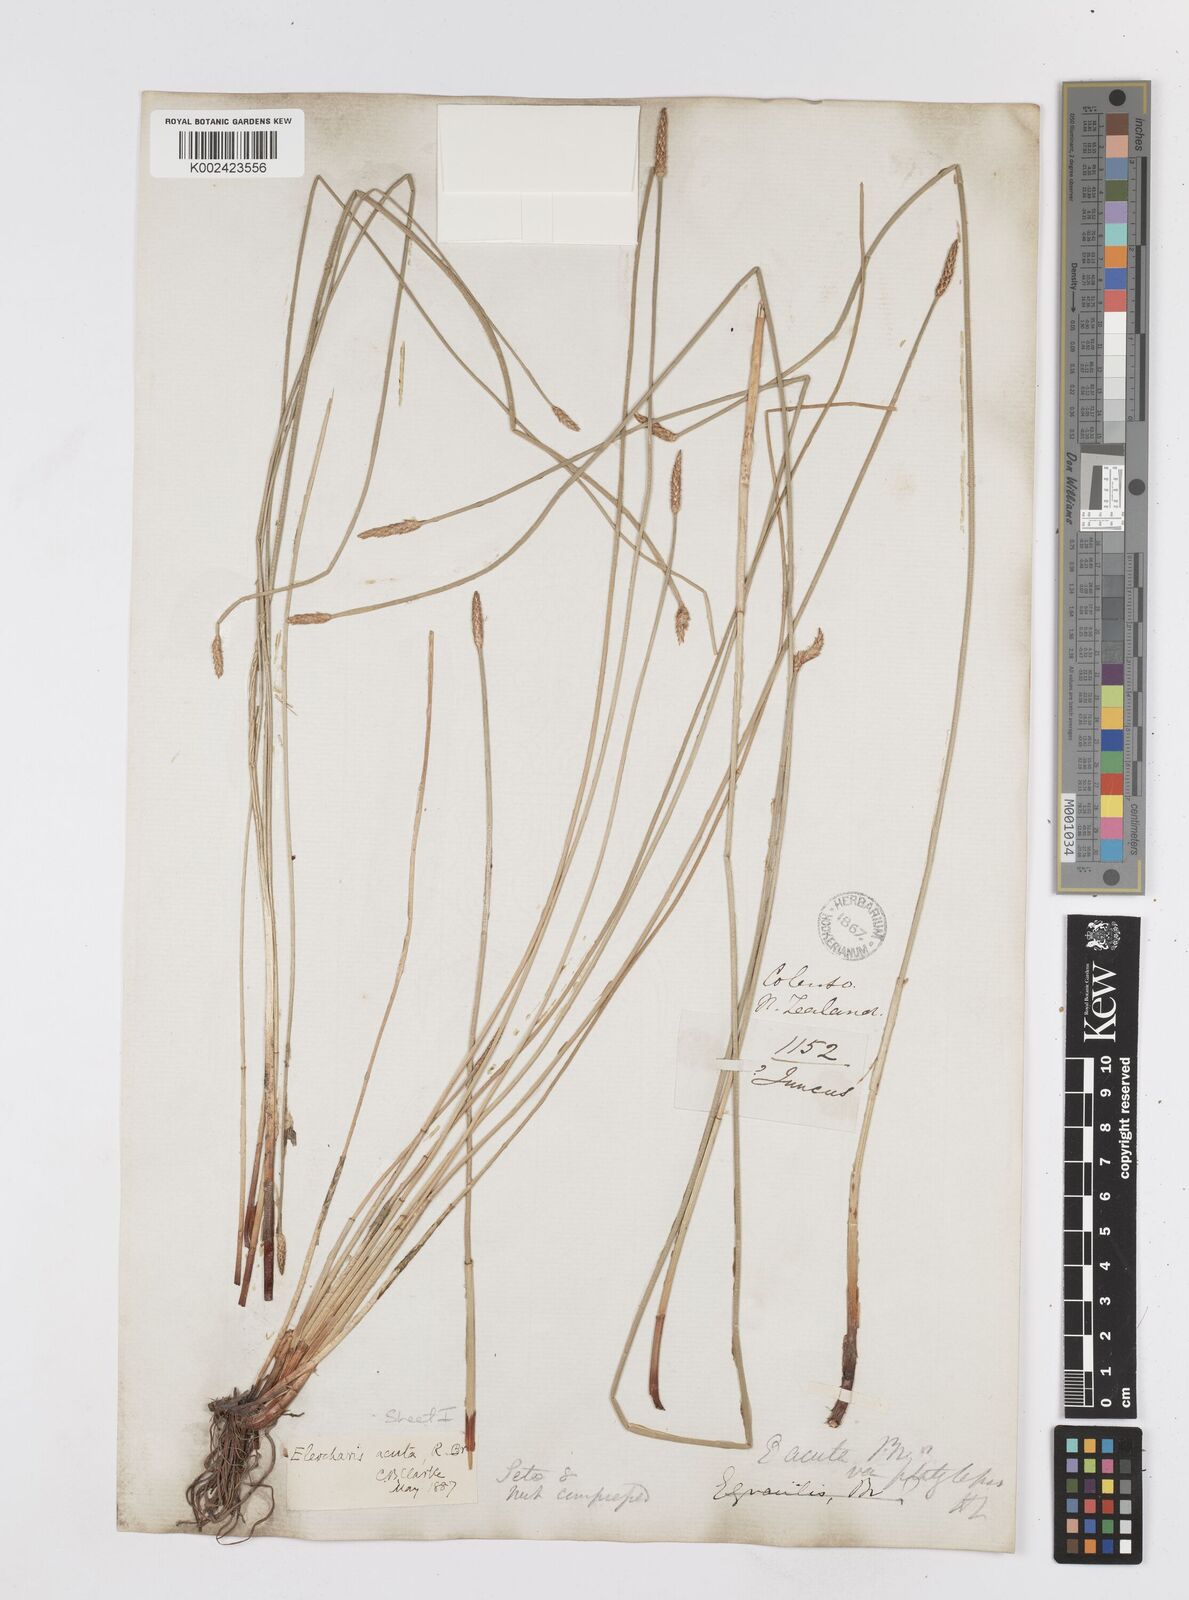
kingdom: Plantae
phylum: Tracheophyta
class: Liliopsida
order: Poales
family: Cyperaceae
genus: Eleocharis
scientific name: Eleocharis acuta
